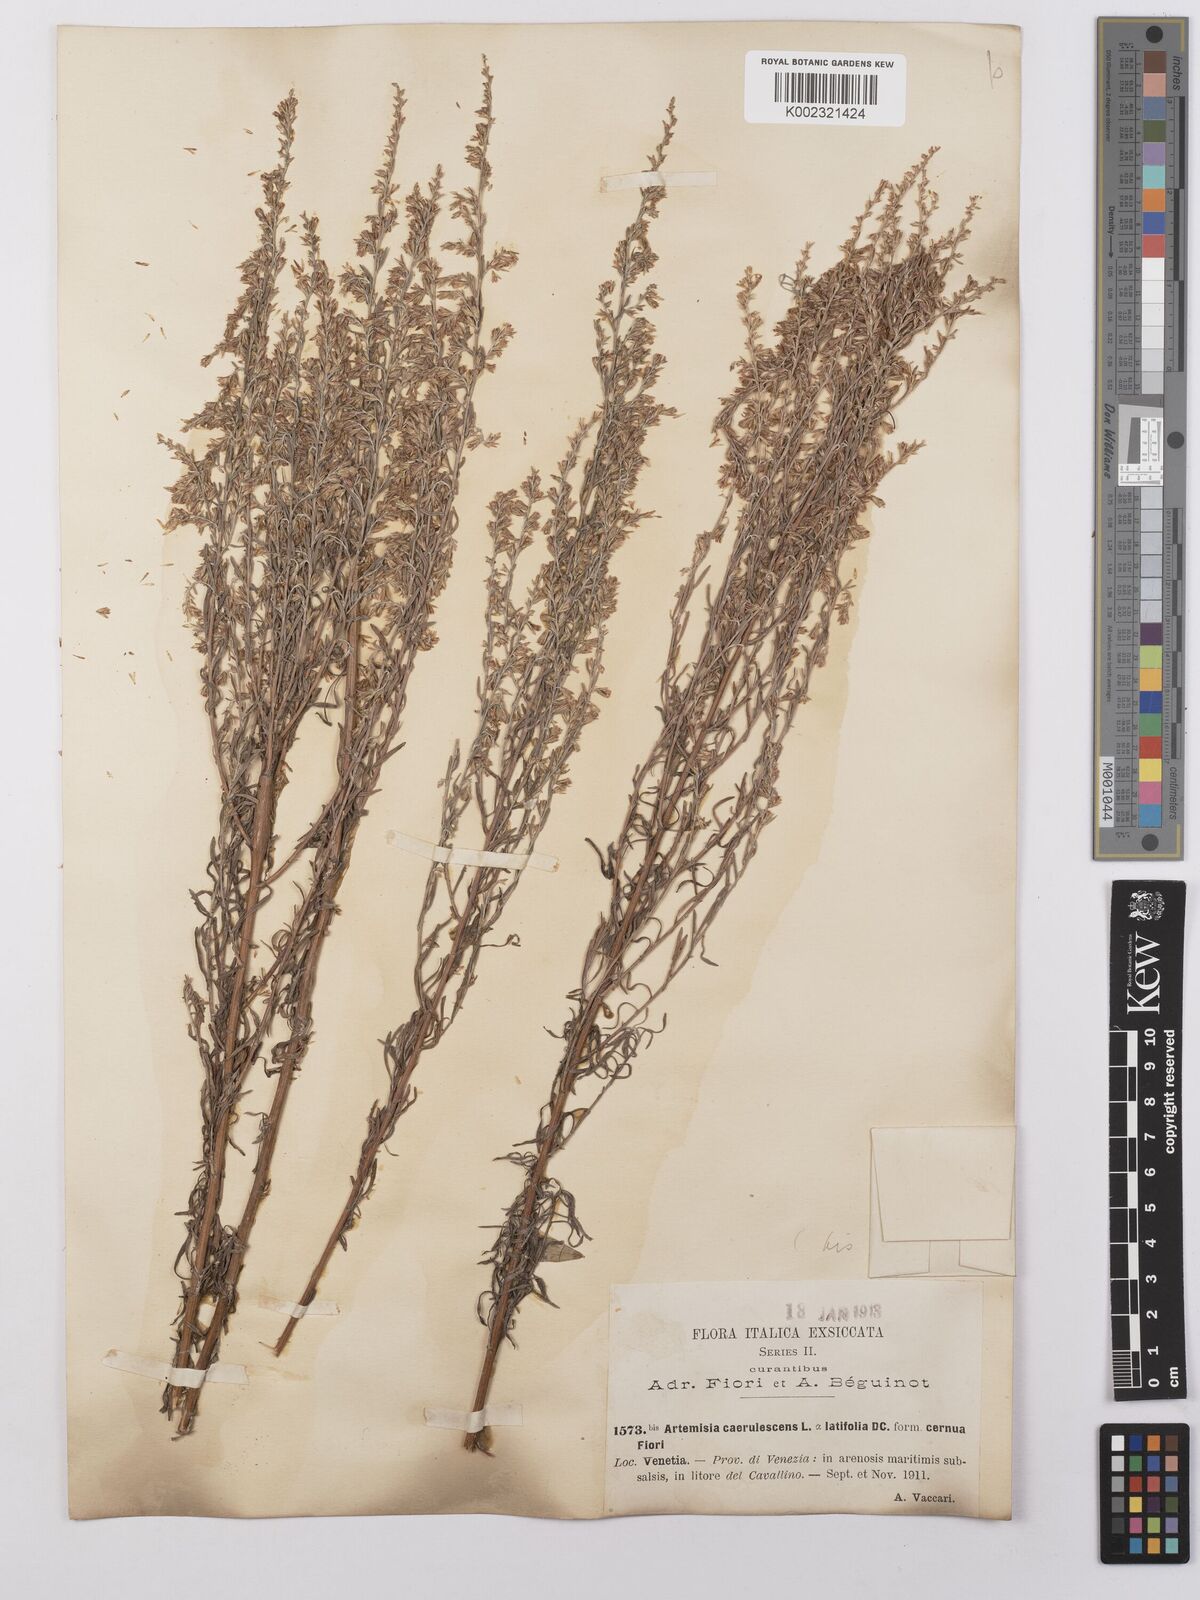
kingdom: Plantae
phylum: Tracheophyta
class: Magnoliopsida
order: Asterales
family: Asteraceae
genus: Artemisia
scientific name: Artemisia caerulescens
